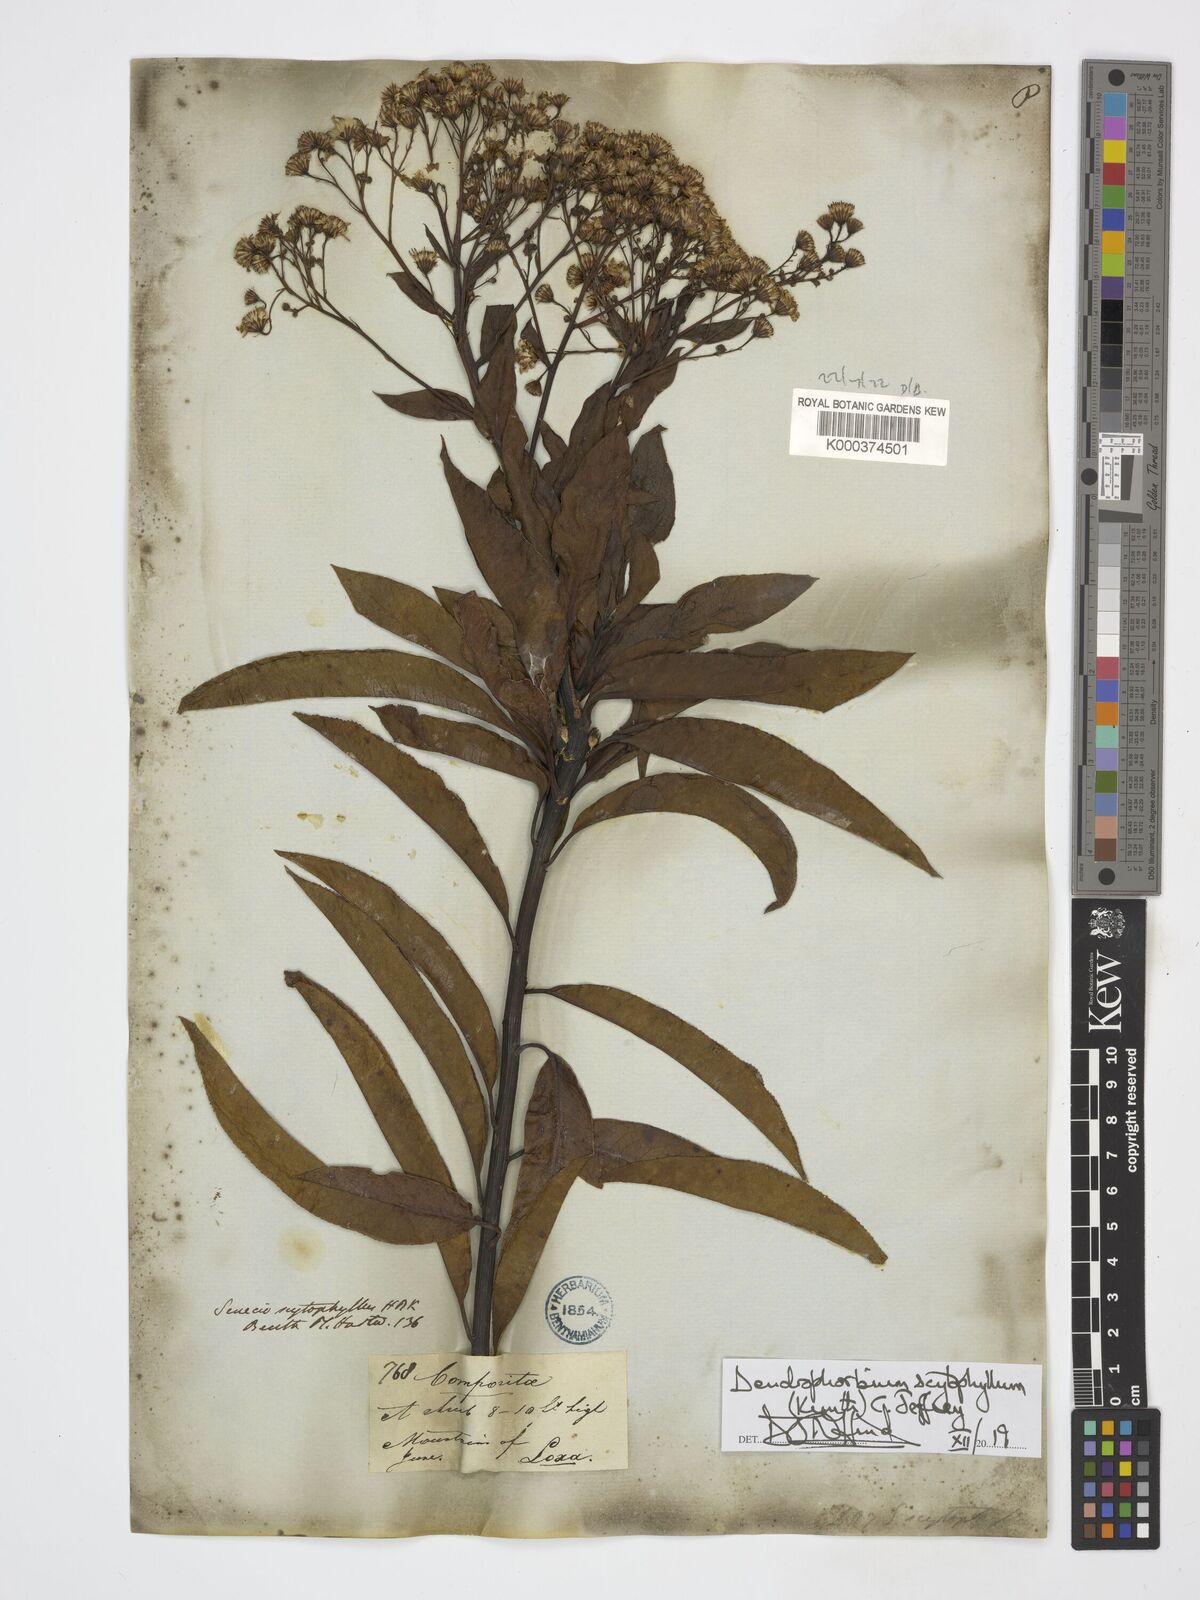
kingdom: Plantae
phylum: Tracheophyta
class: Magnoliopsida
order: Asterales
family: Asteraceae
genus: Dendrophorbium
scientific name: Dendrophorbium scytophyllum
